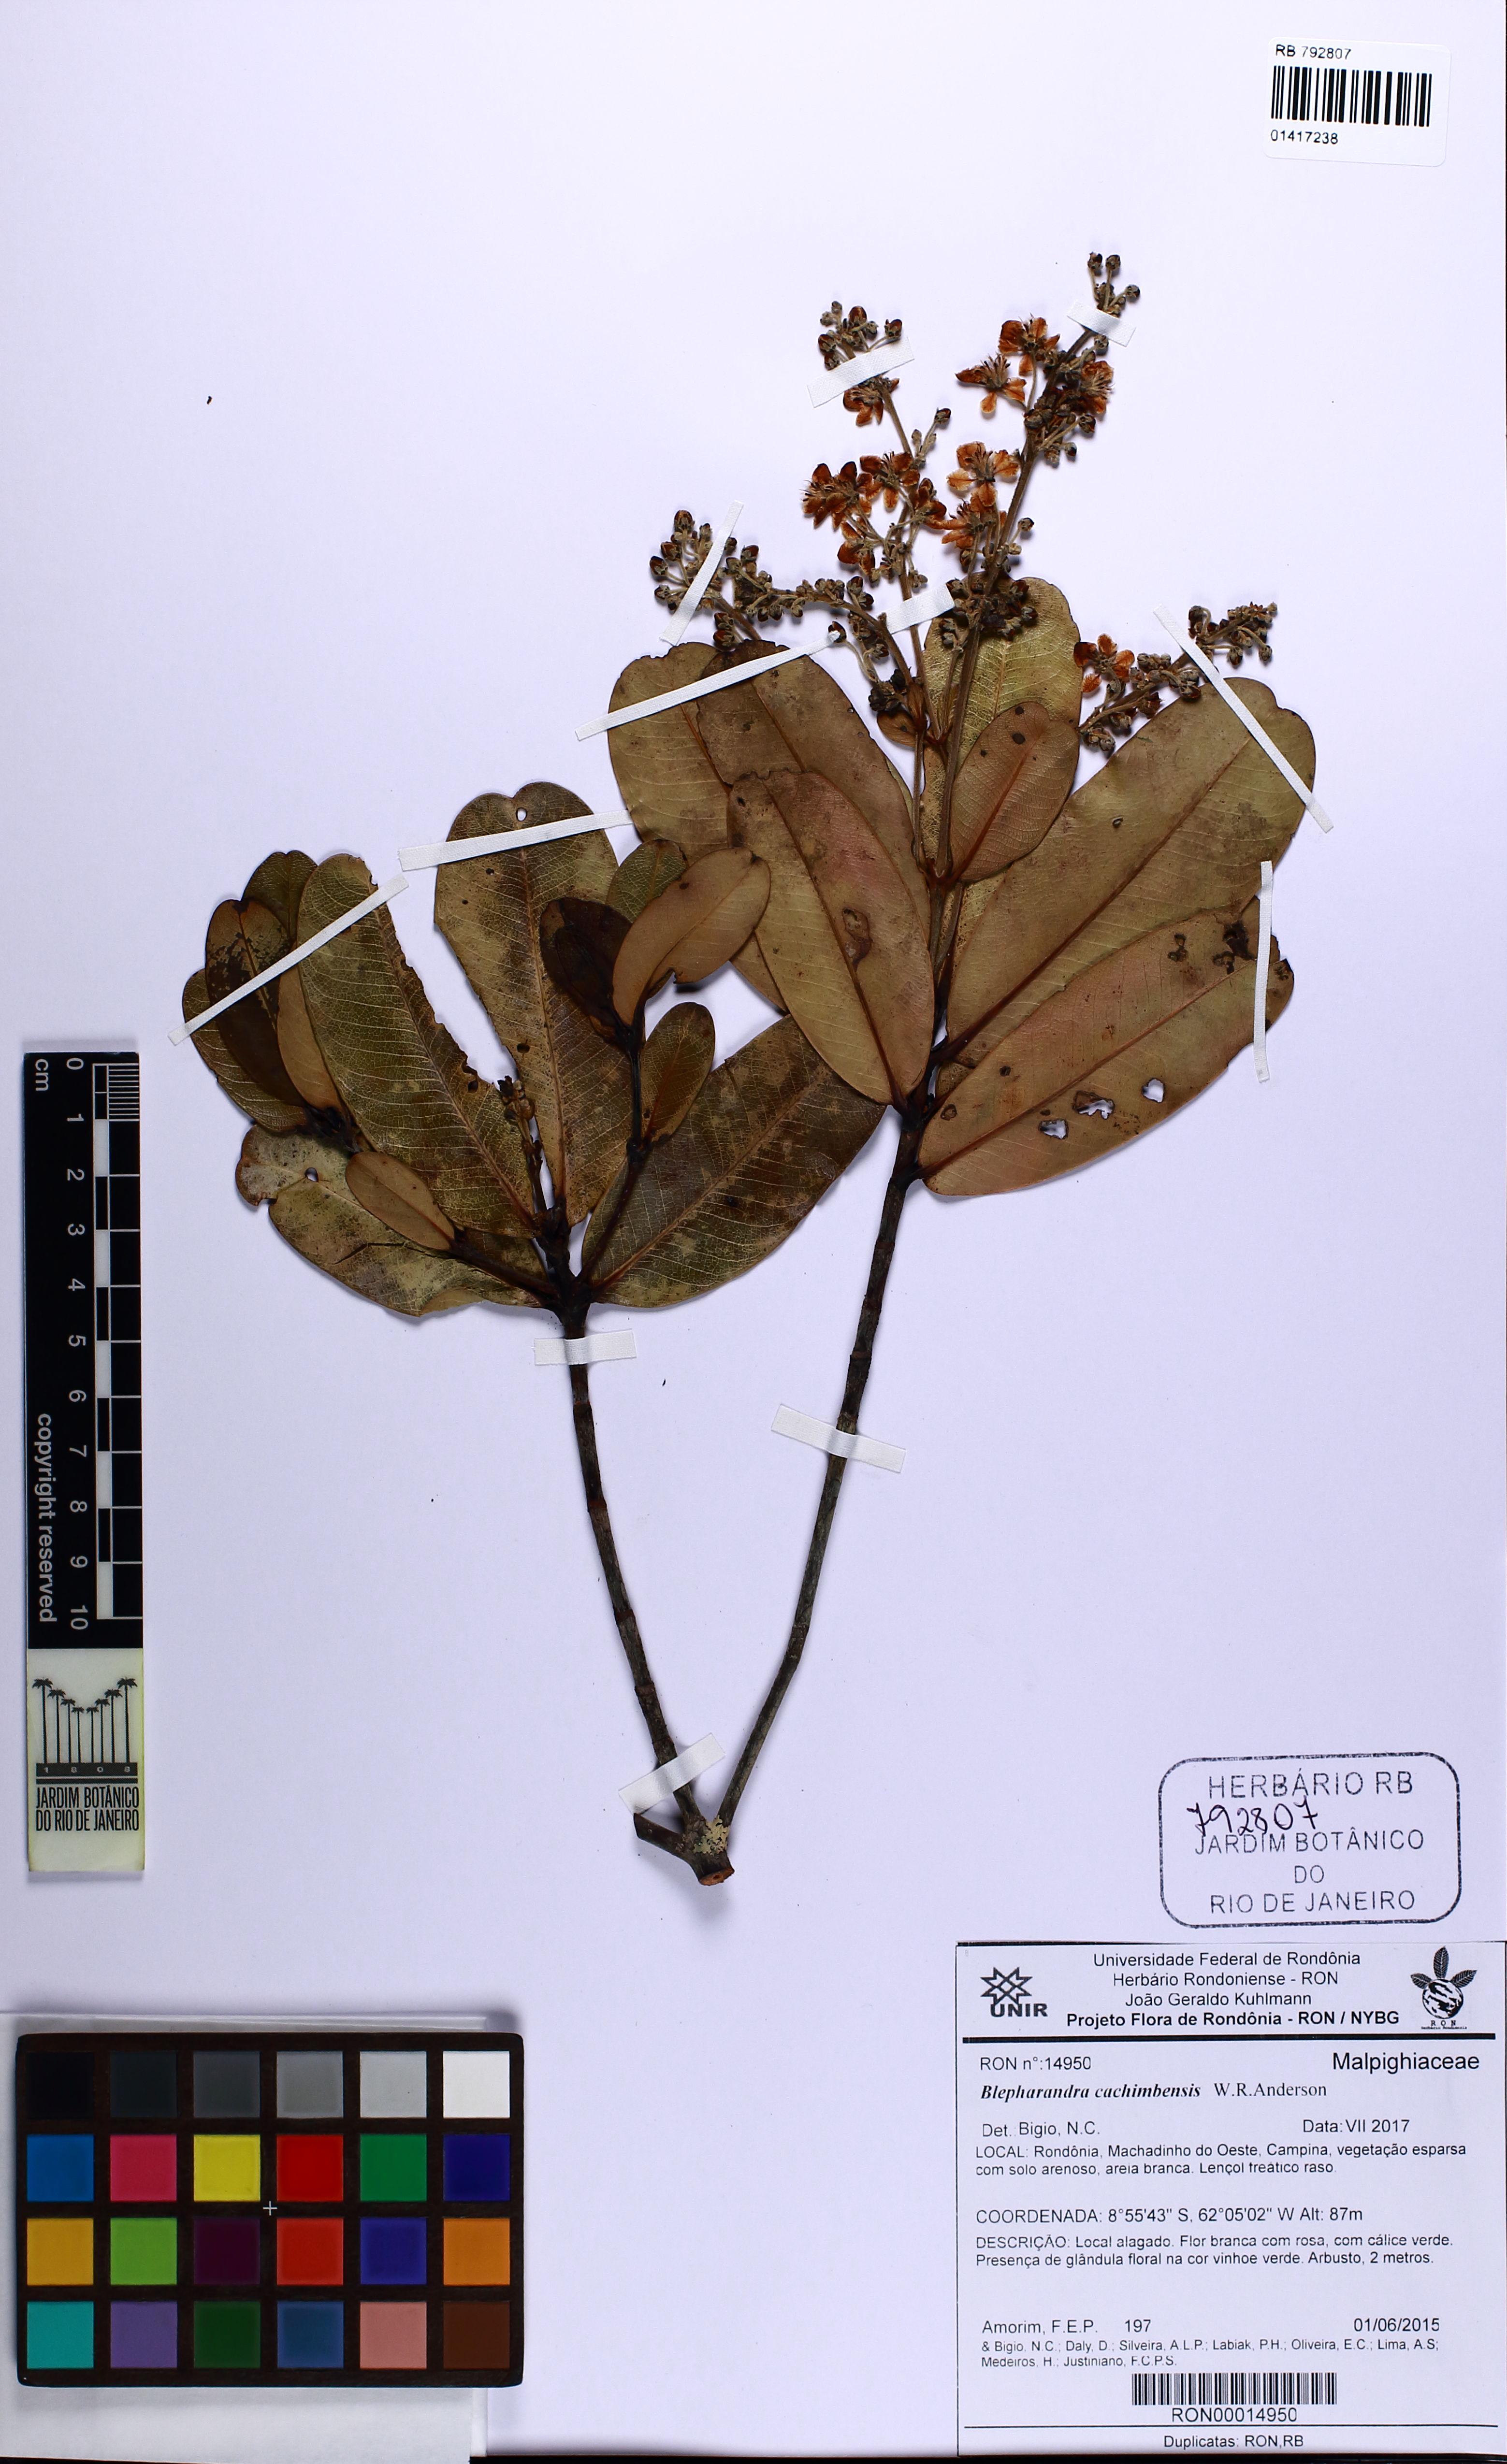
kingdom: Plantae
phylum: Tracheophyta
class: Magnoliopsida
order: Malpighiales
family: Malpighiaceae
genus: Blepharandra
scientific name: Blepharandra cachimbensis
